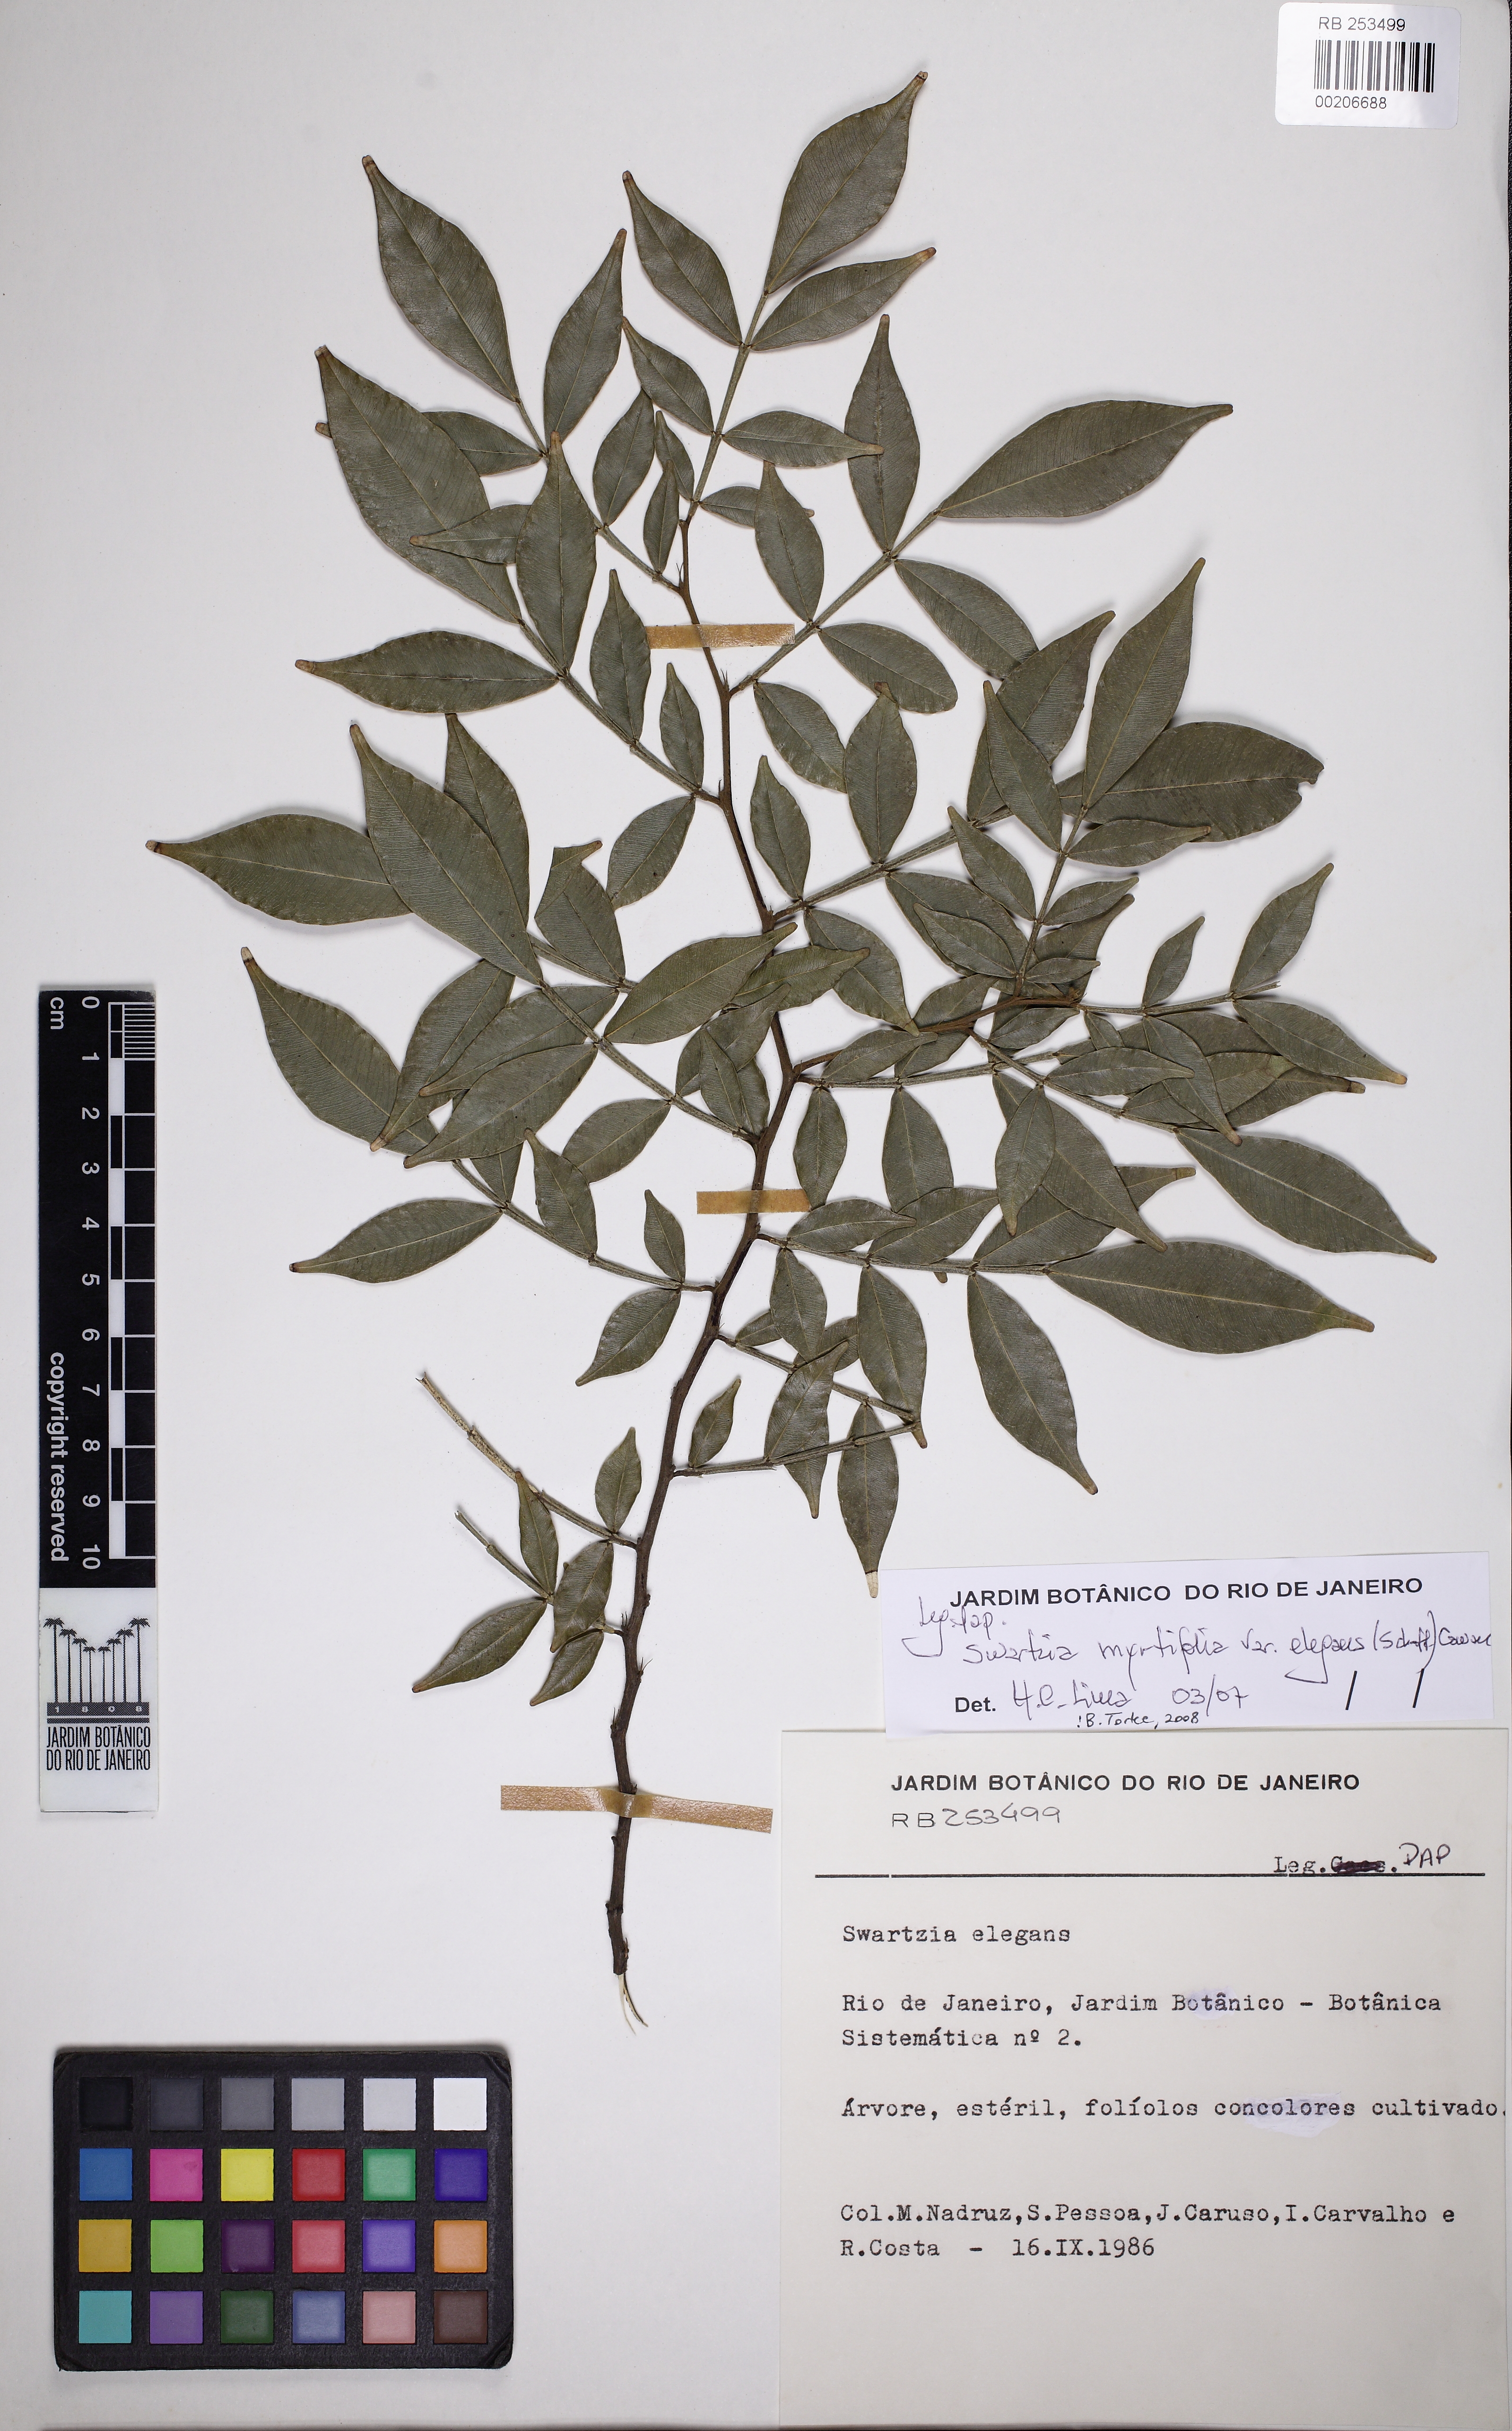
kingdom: Plantae
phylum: Tracheophyta
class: Magnoliopsida
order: Fabales
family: Fabaceae
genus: Swartzia
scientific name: Swartzia myrtifolia
